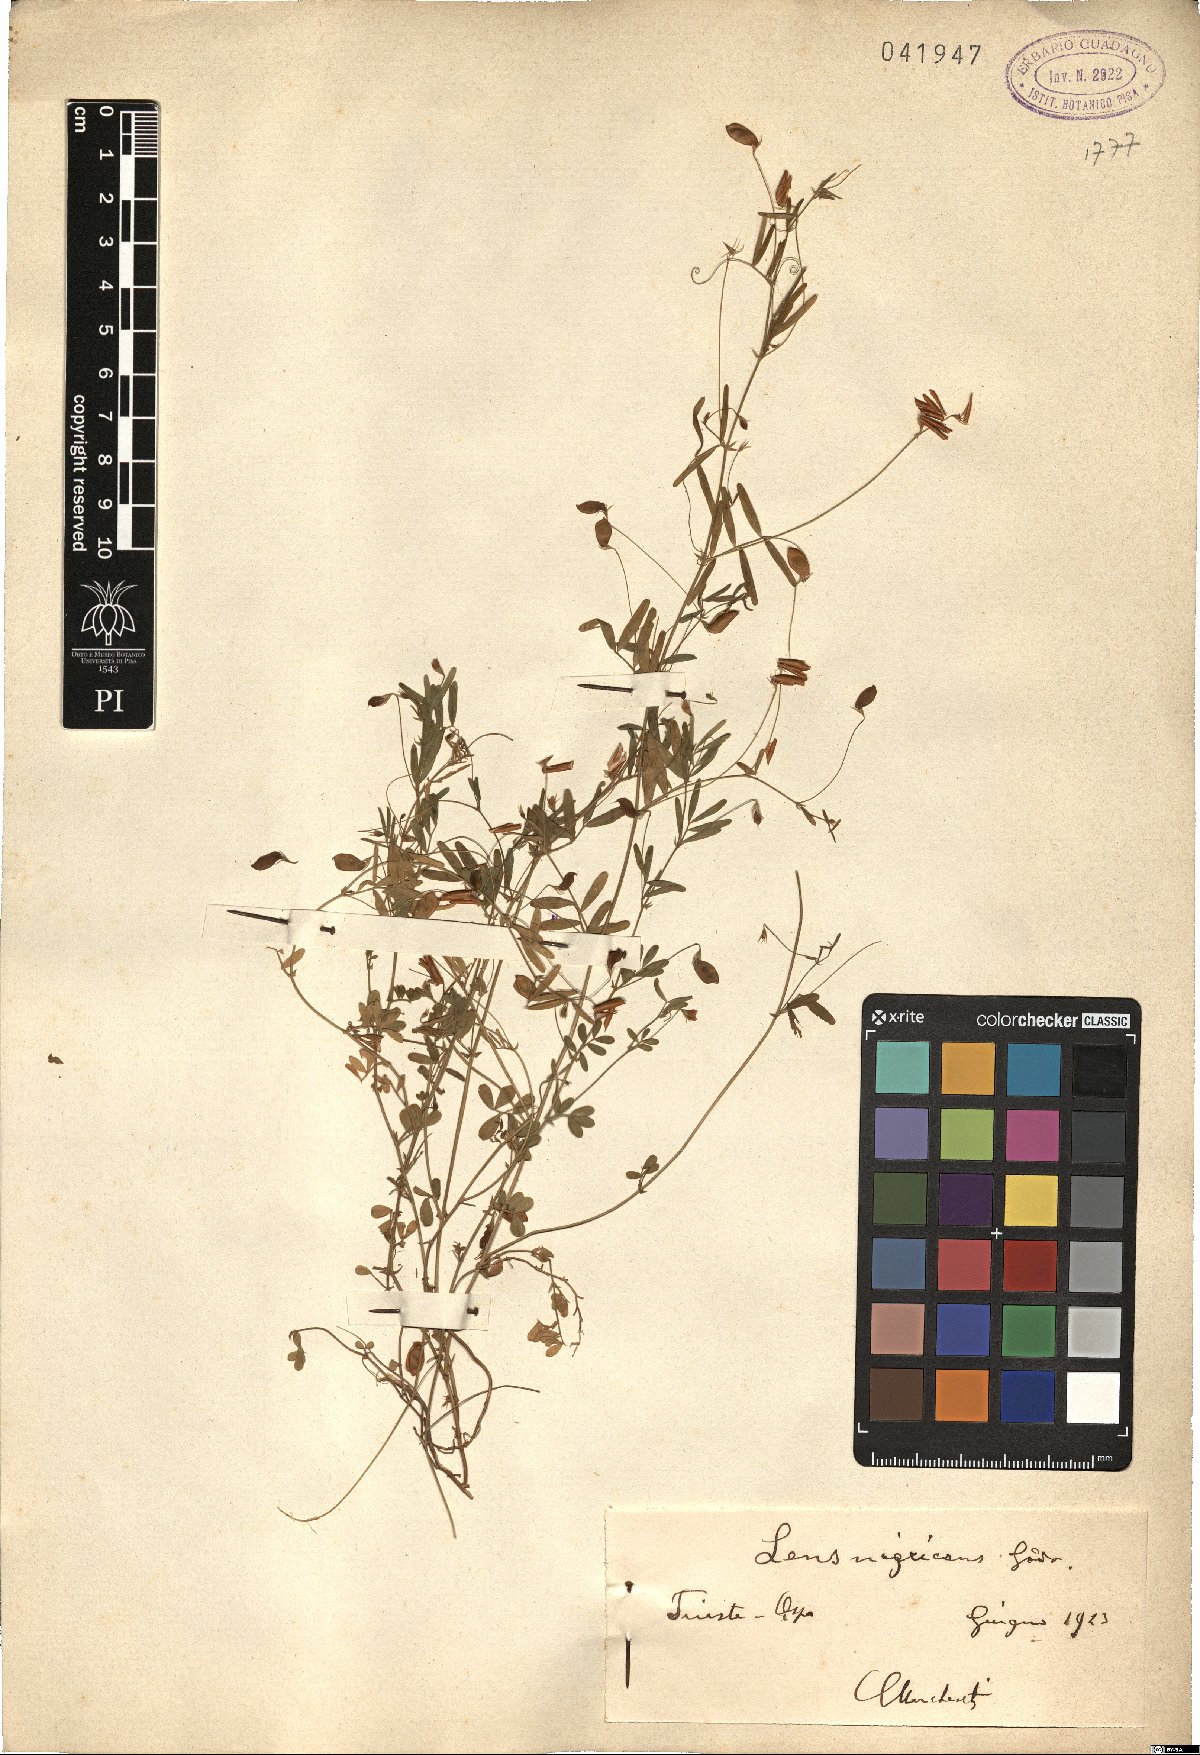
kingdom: Plantae
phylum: Tracheophyta
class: Magnoliopsida
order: Fabales
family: Fabaceae
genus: Vicia
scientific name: Vicia lentoides
